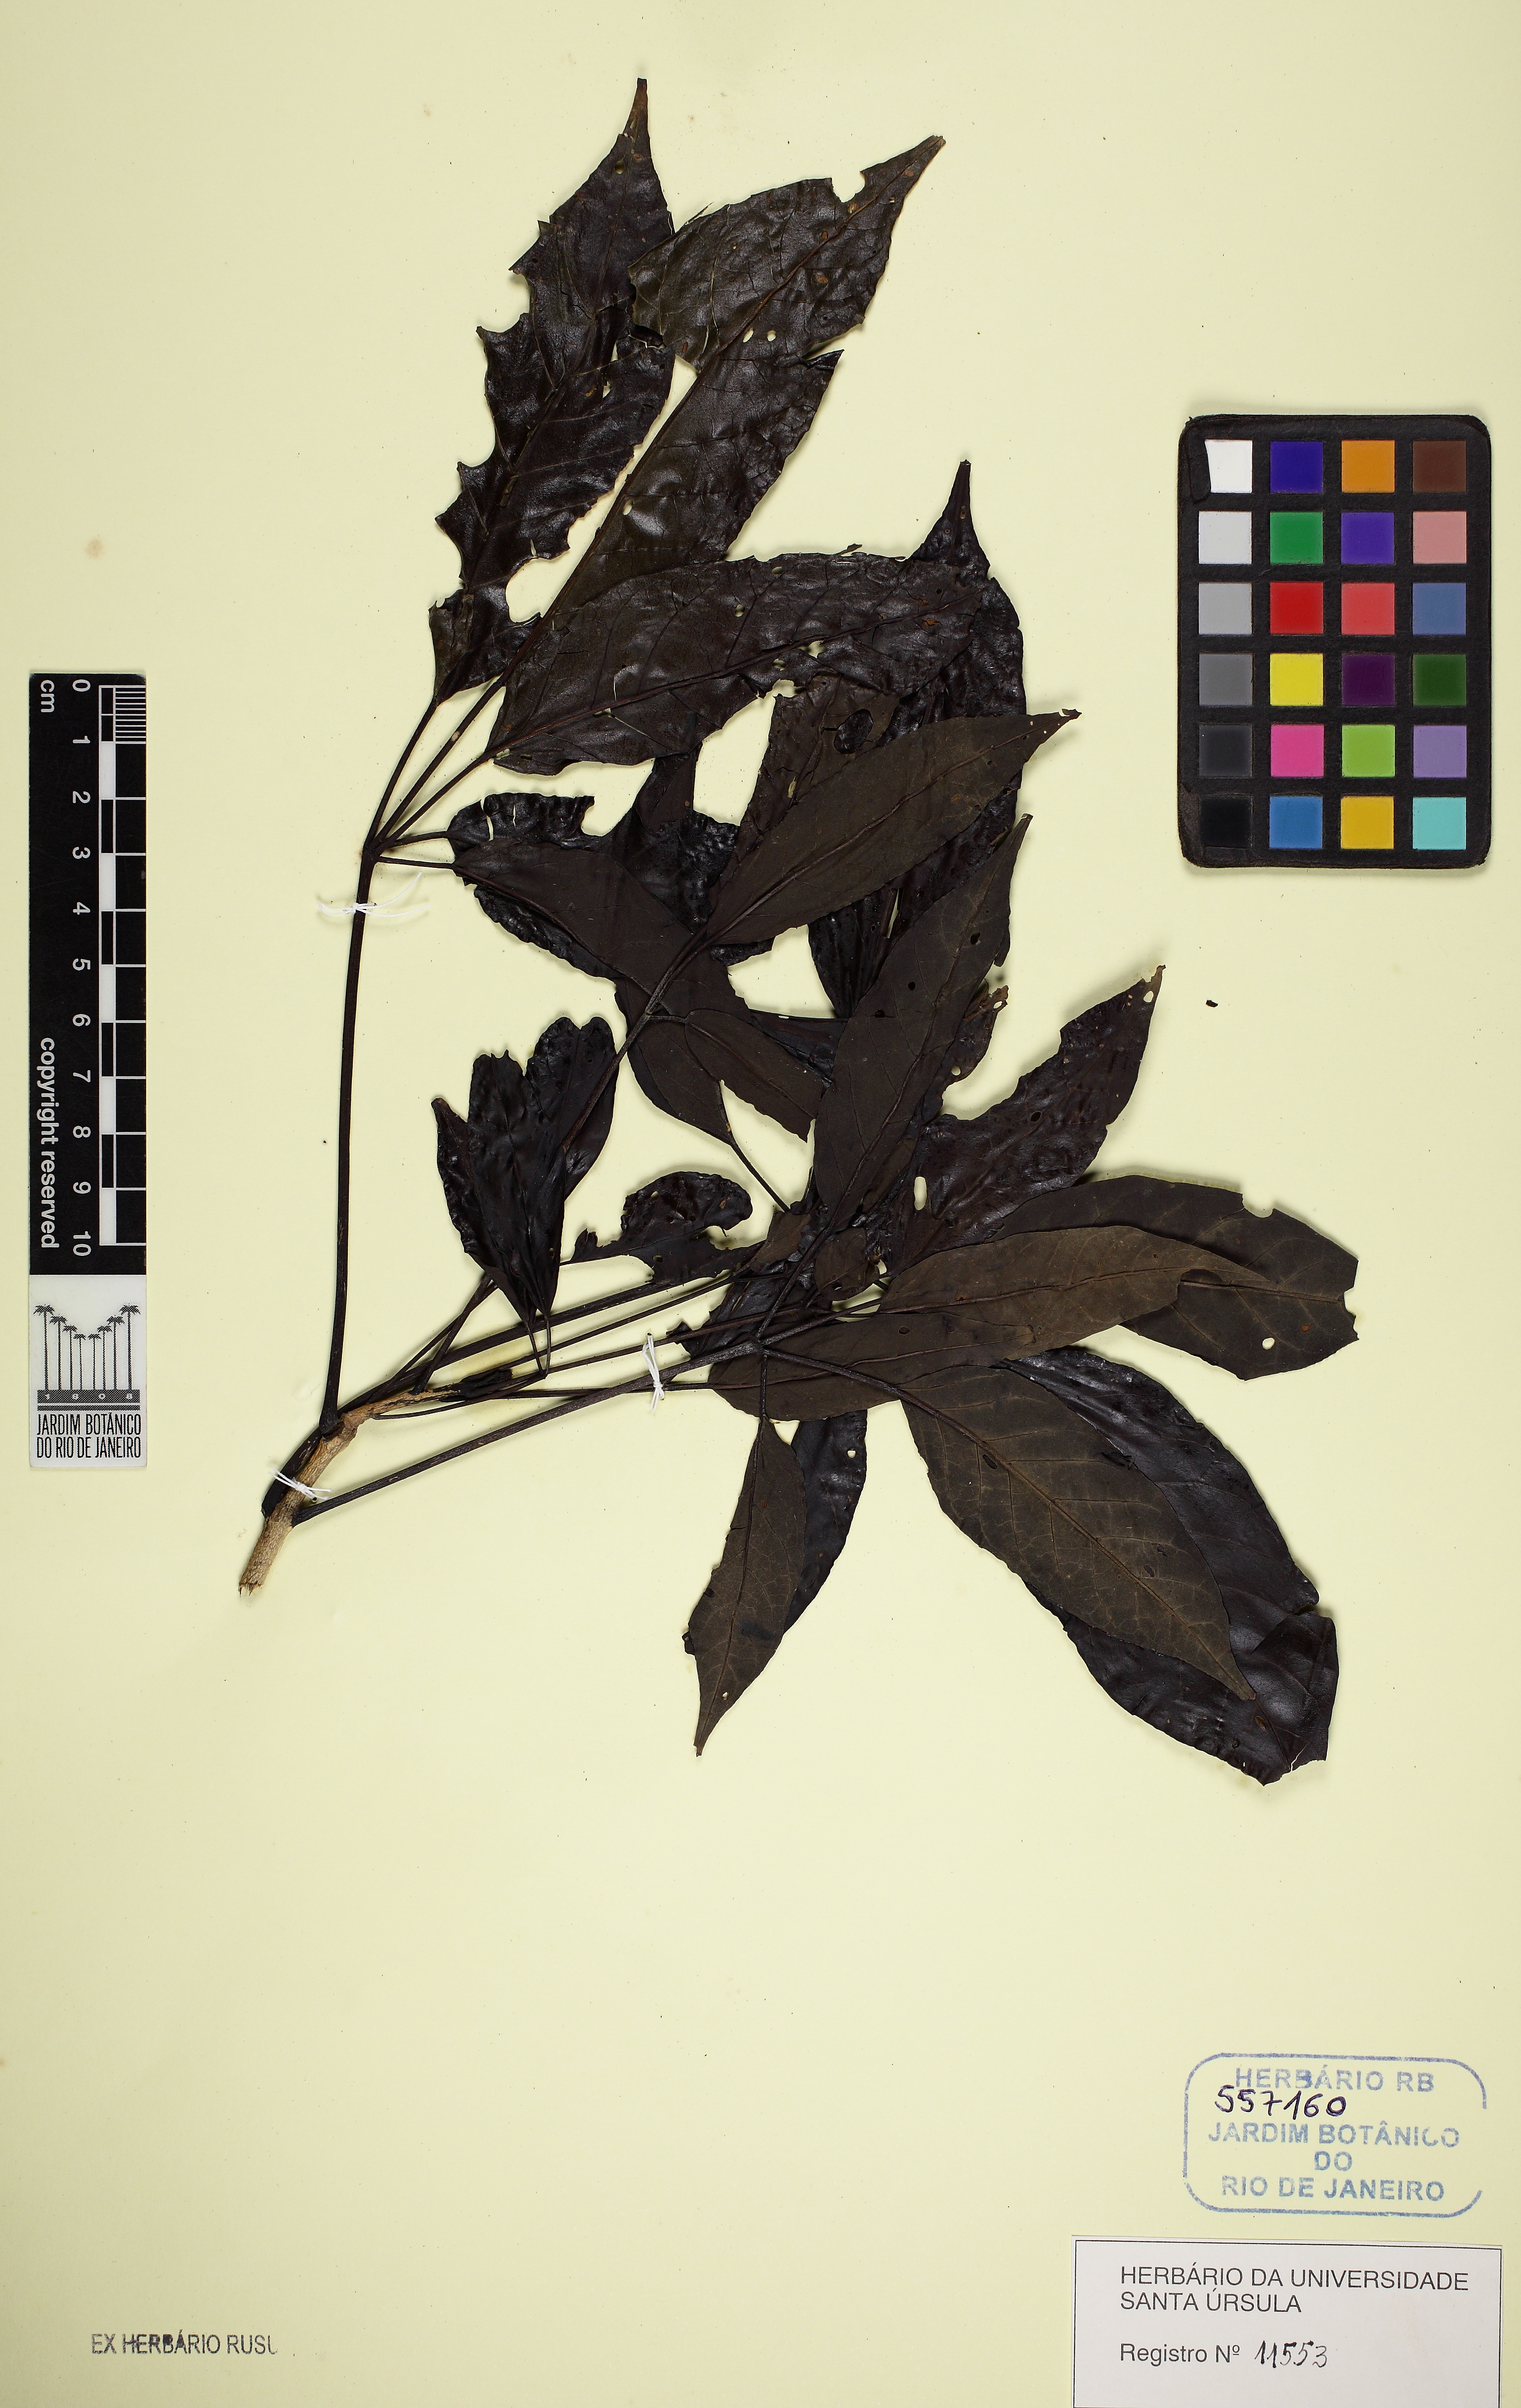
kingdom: Plantae
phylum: Tracheophyta
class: Magnoliopsida
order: Lamiales
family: Bignoniaceae
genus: Sparattosperma
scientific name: Sparattosperma leucanthum
